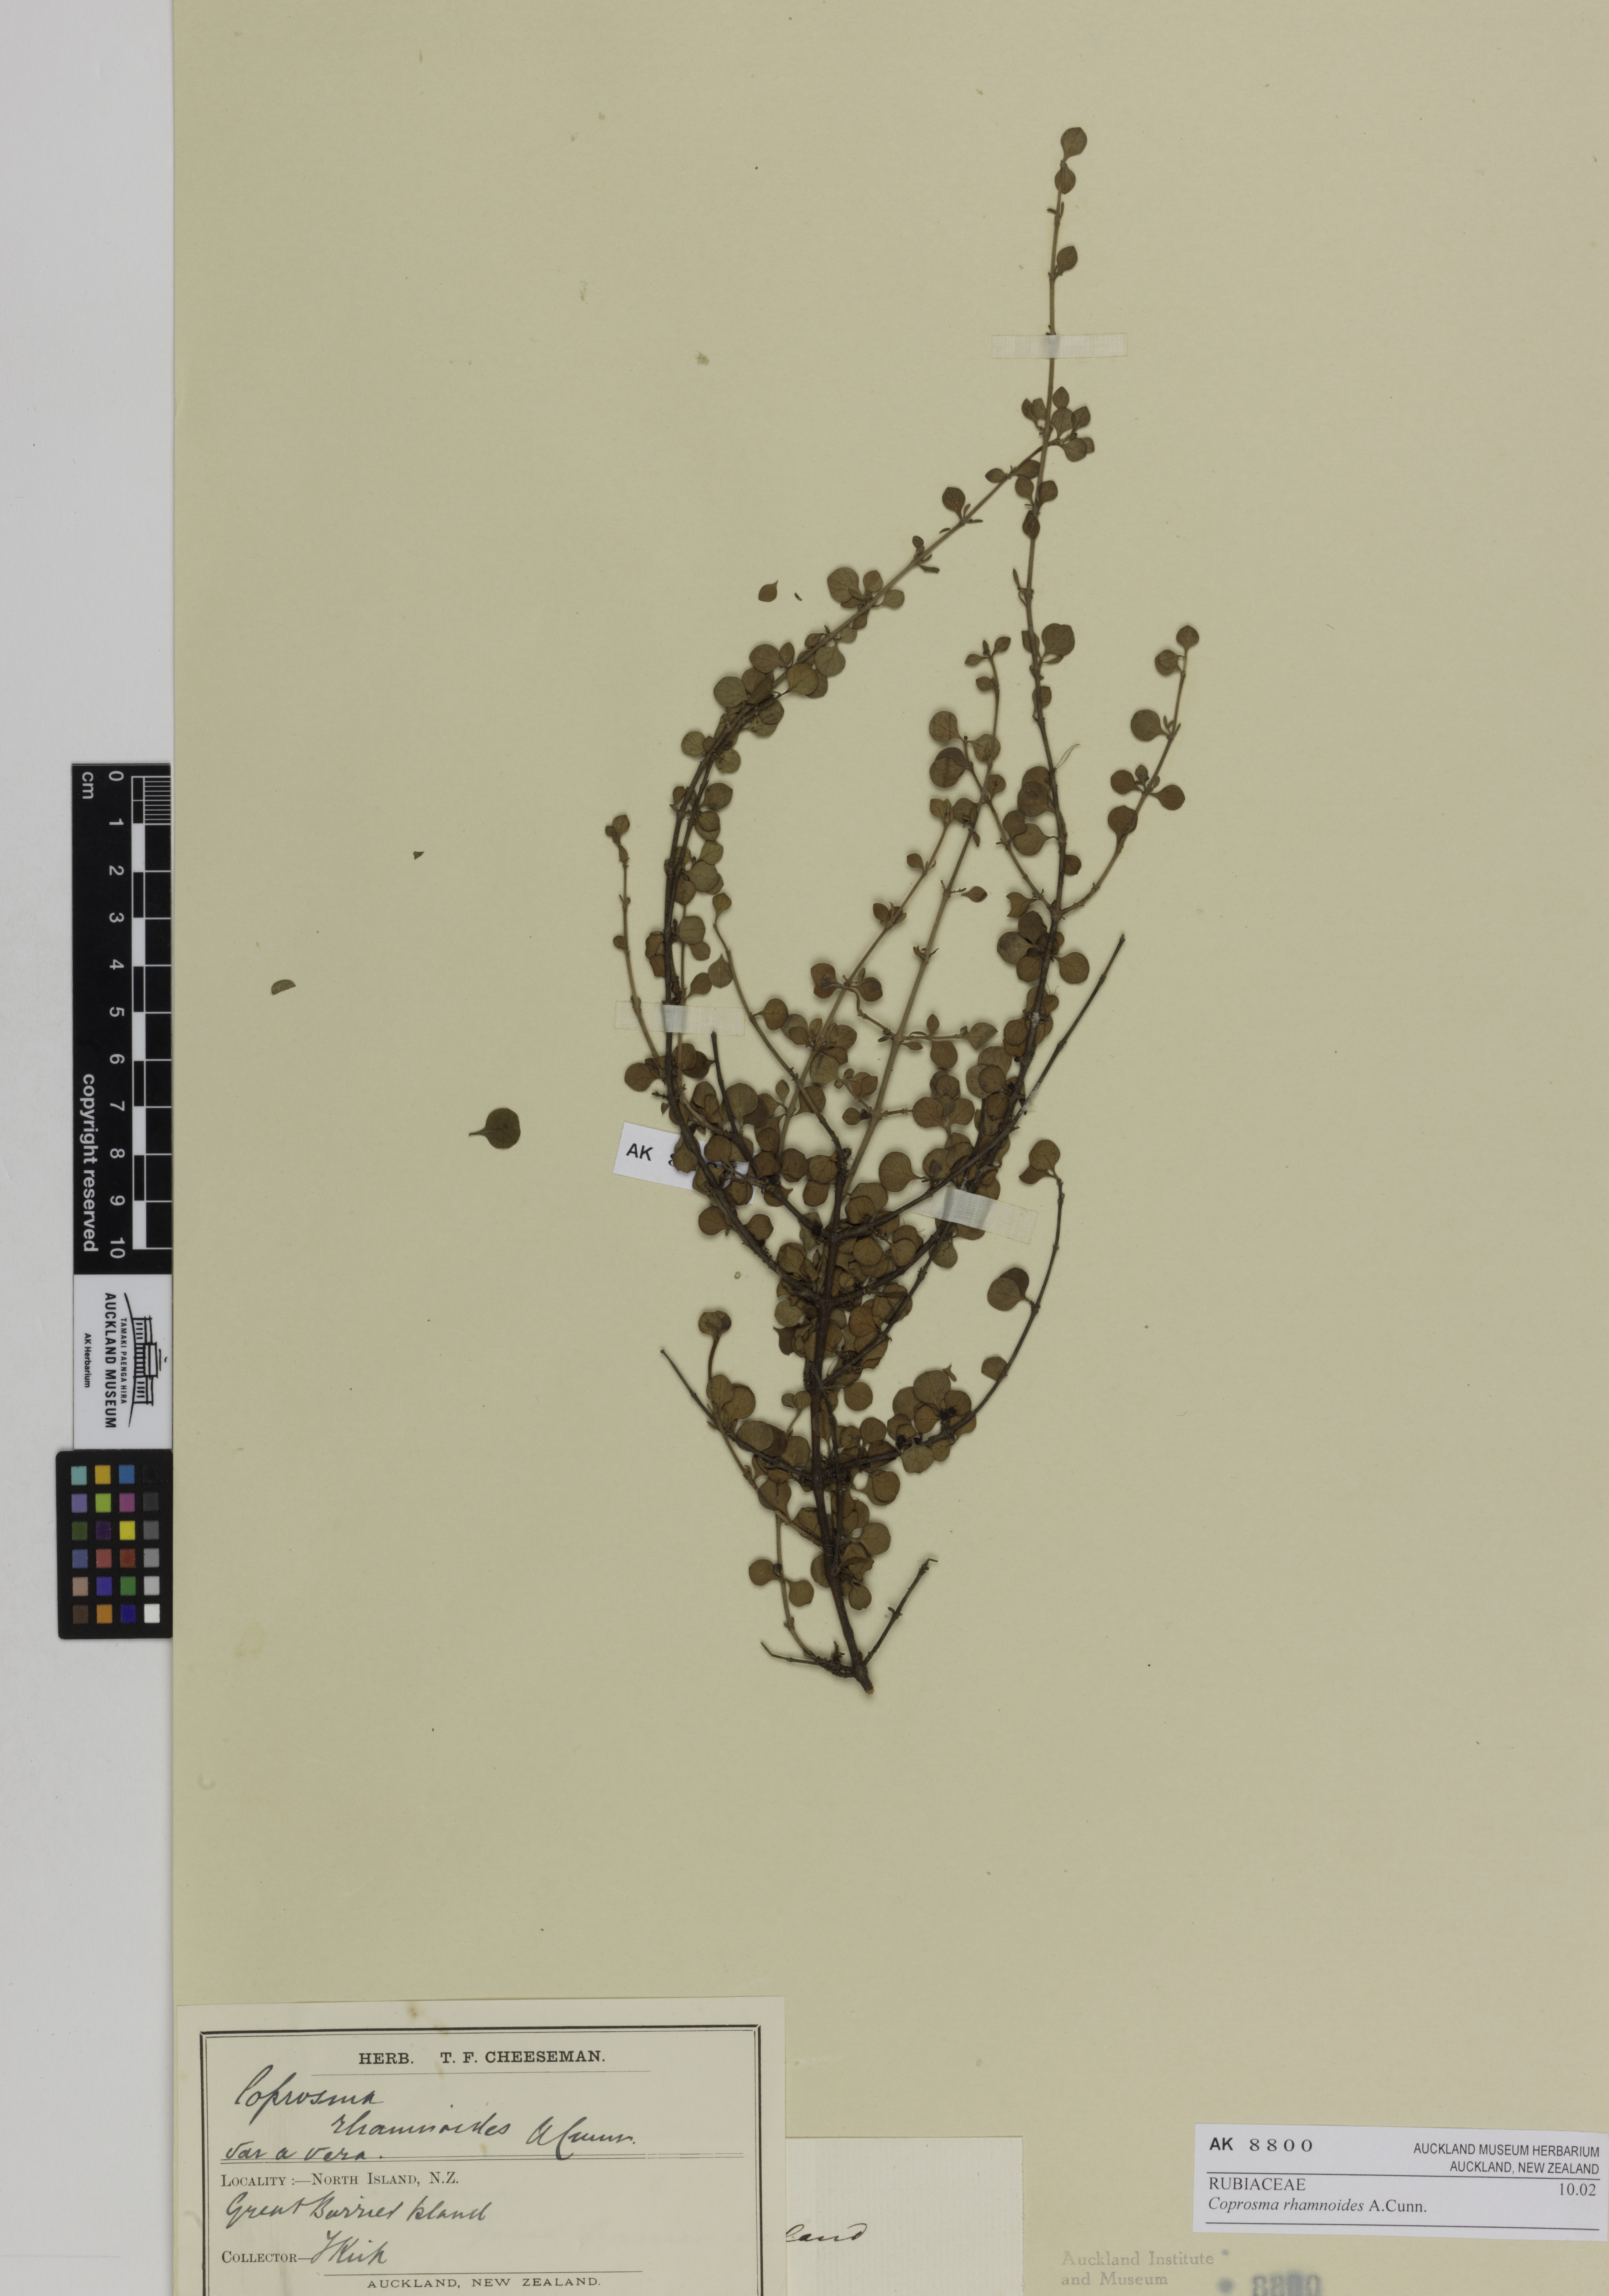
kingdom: Plantae
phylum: Tracheophyta
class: Magnoliopsida
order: Gentianales
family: Rubiaceae
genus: Coprosma
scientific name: Coprosma rhamnoides
